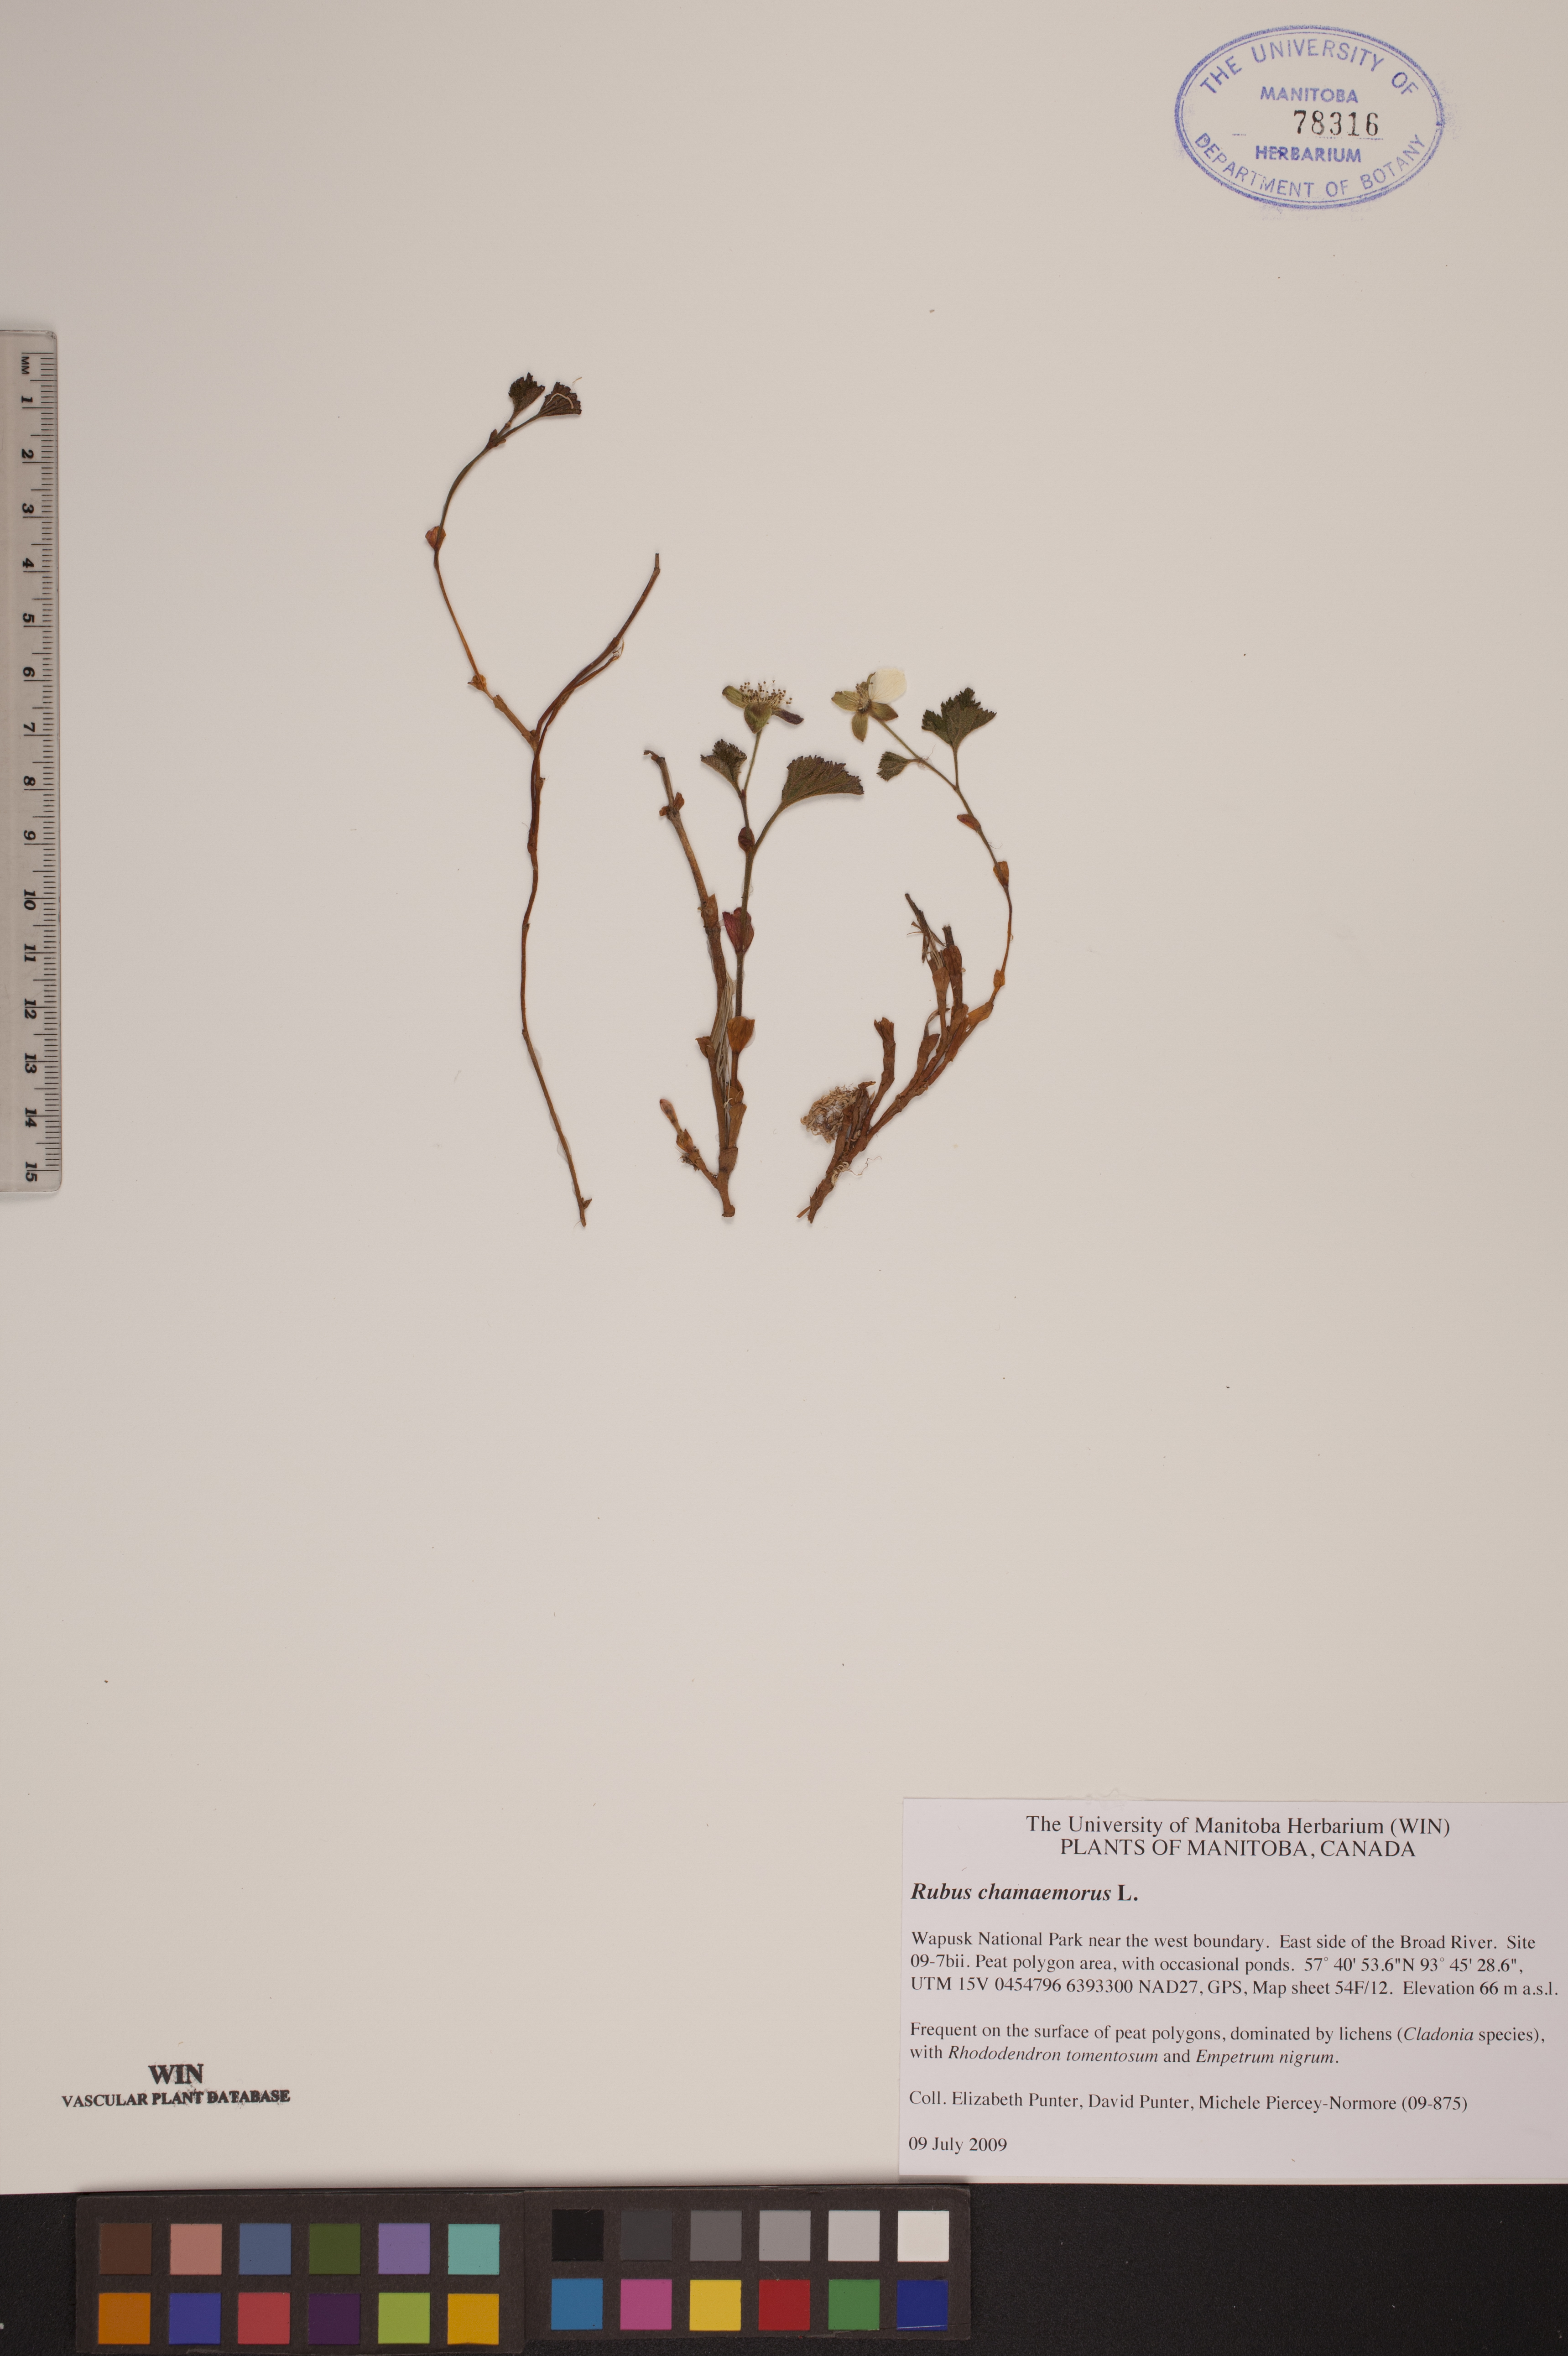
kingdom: Plantae
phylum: Tracheophyta
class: Magnoliopsida
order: Rosales
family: Rosaceae
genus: Rubus
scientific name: Rubus chamaemorus
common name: Cloudberry
